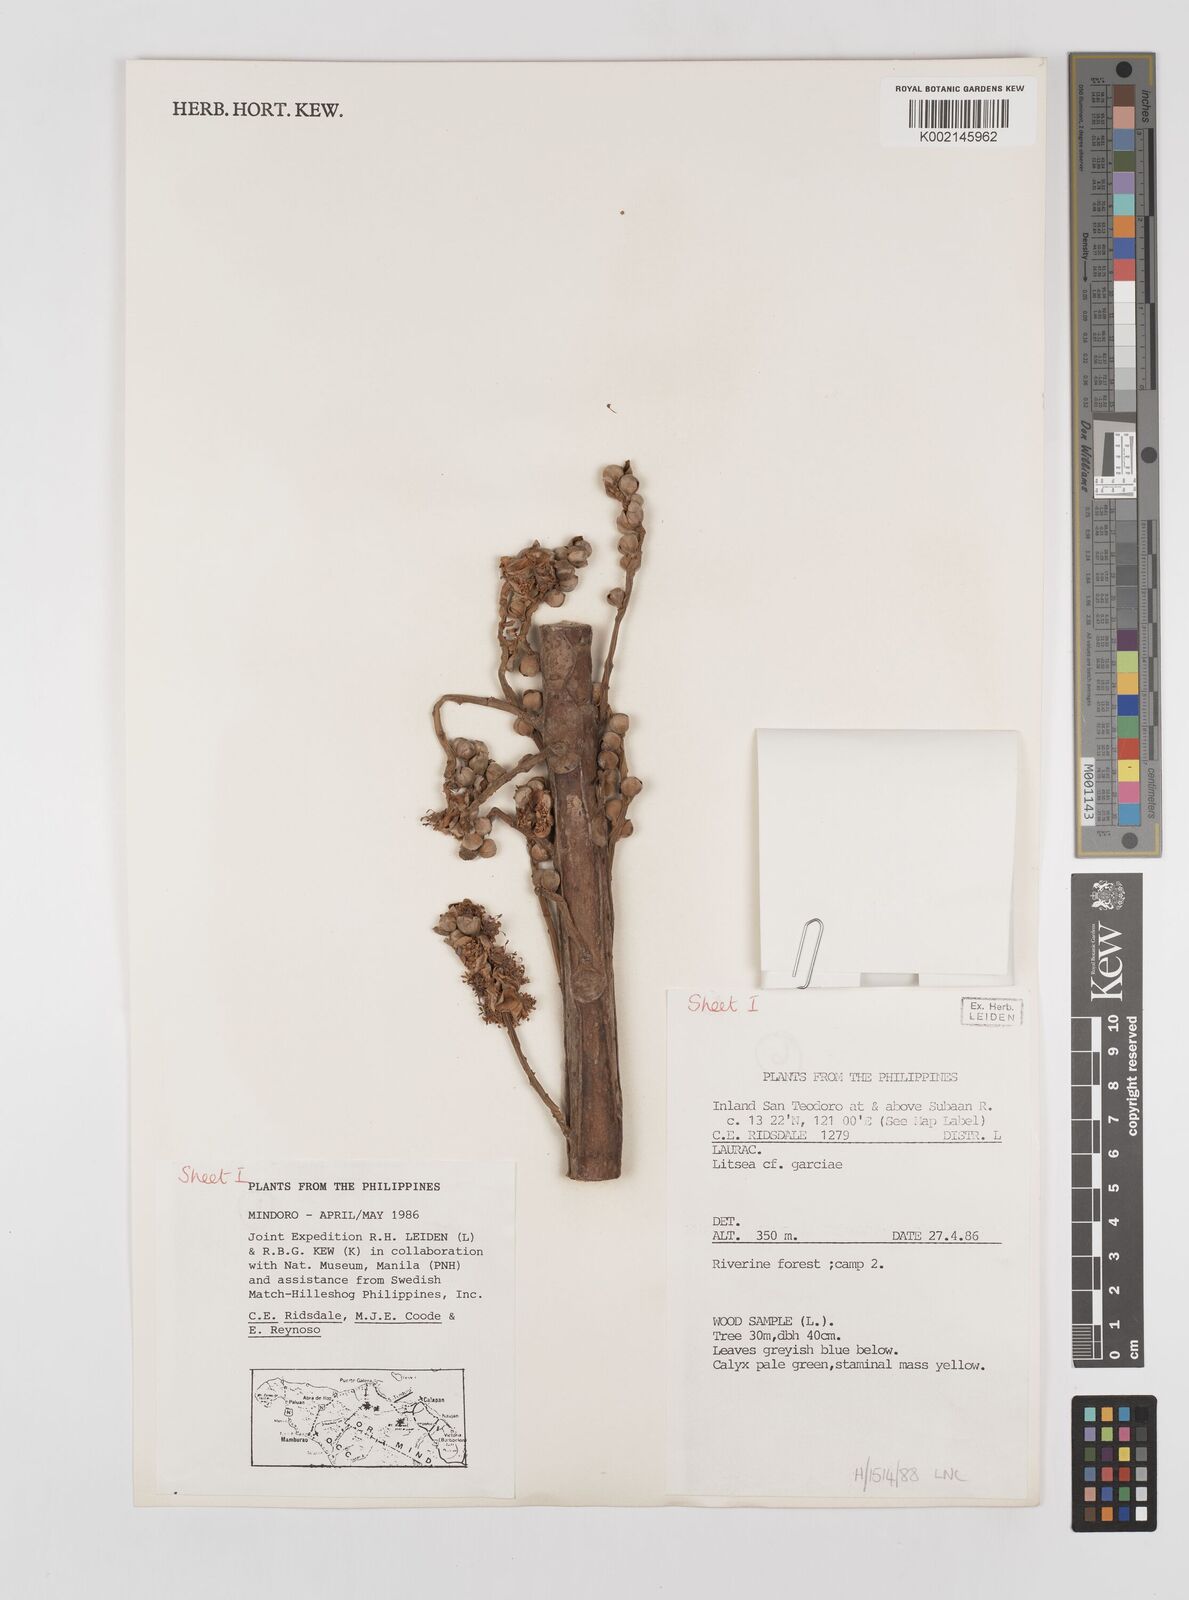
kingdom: Plantae
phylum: Tracheophyta
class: Magnoliopsida
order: Laurales
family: Lauraceae
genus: Litsea
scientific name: Litsea garciae
